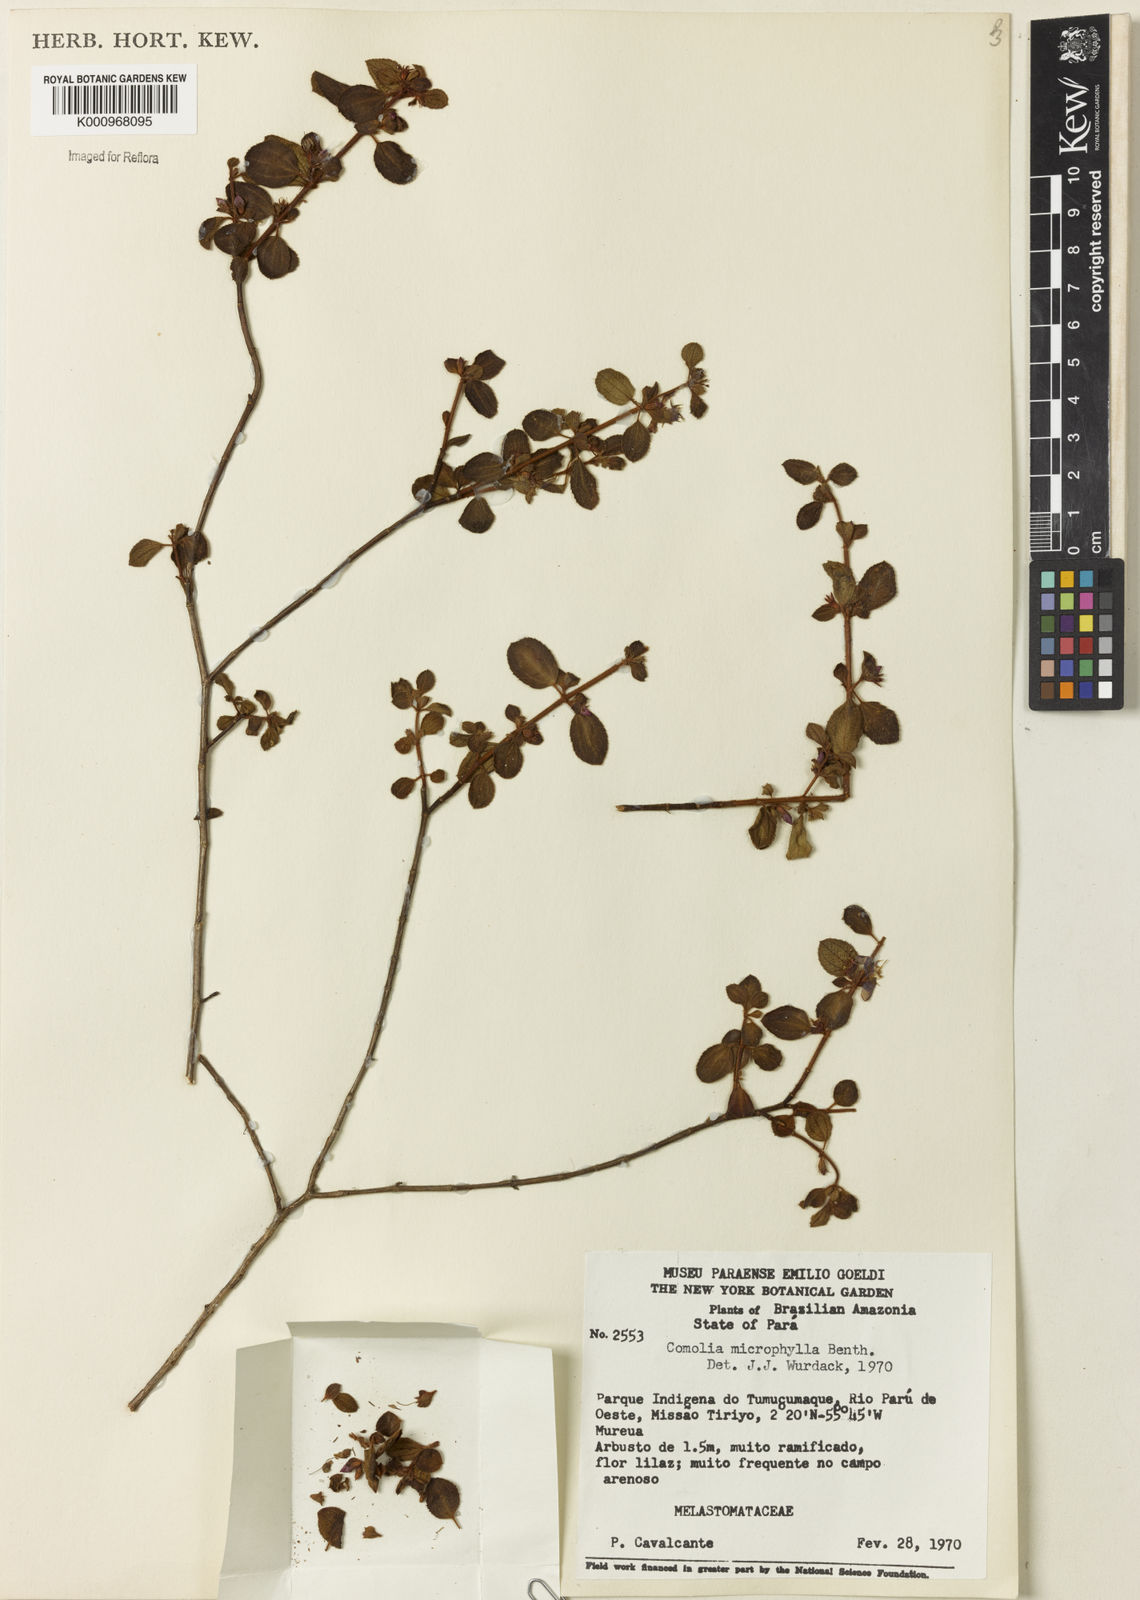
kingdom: Plantae
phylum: Tracheophyta
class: Magnoliopsida
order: Myrtales
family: Melastomataceae
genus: Comolia
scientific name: Comolia microphylla
